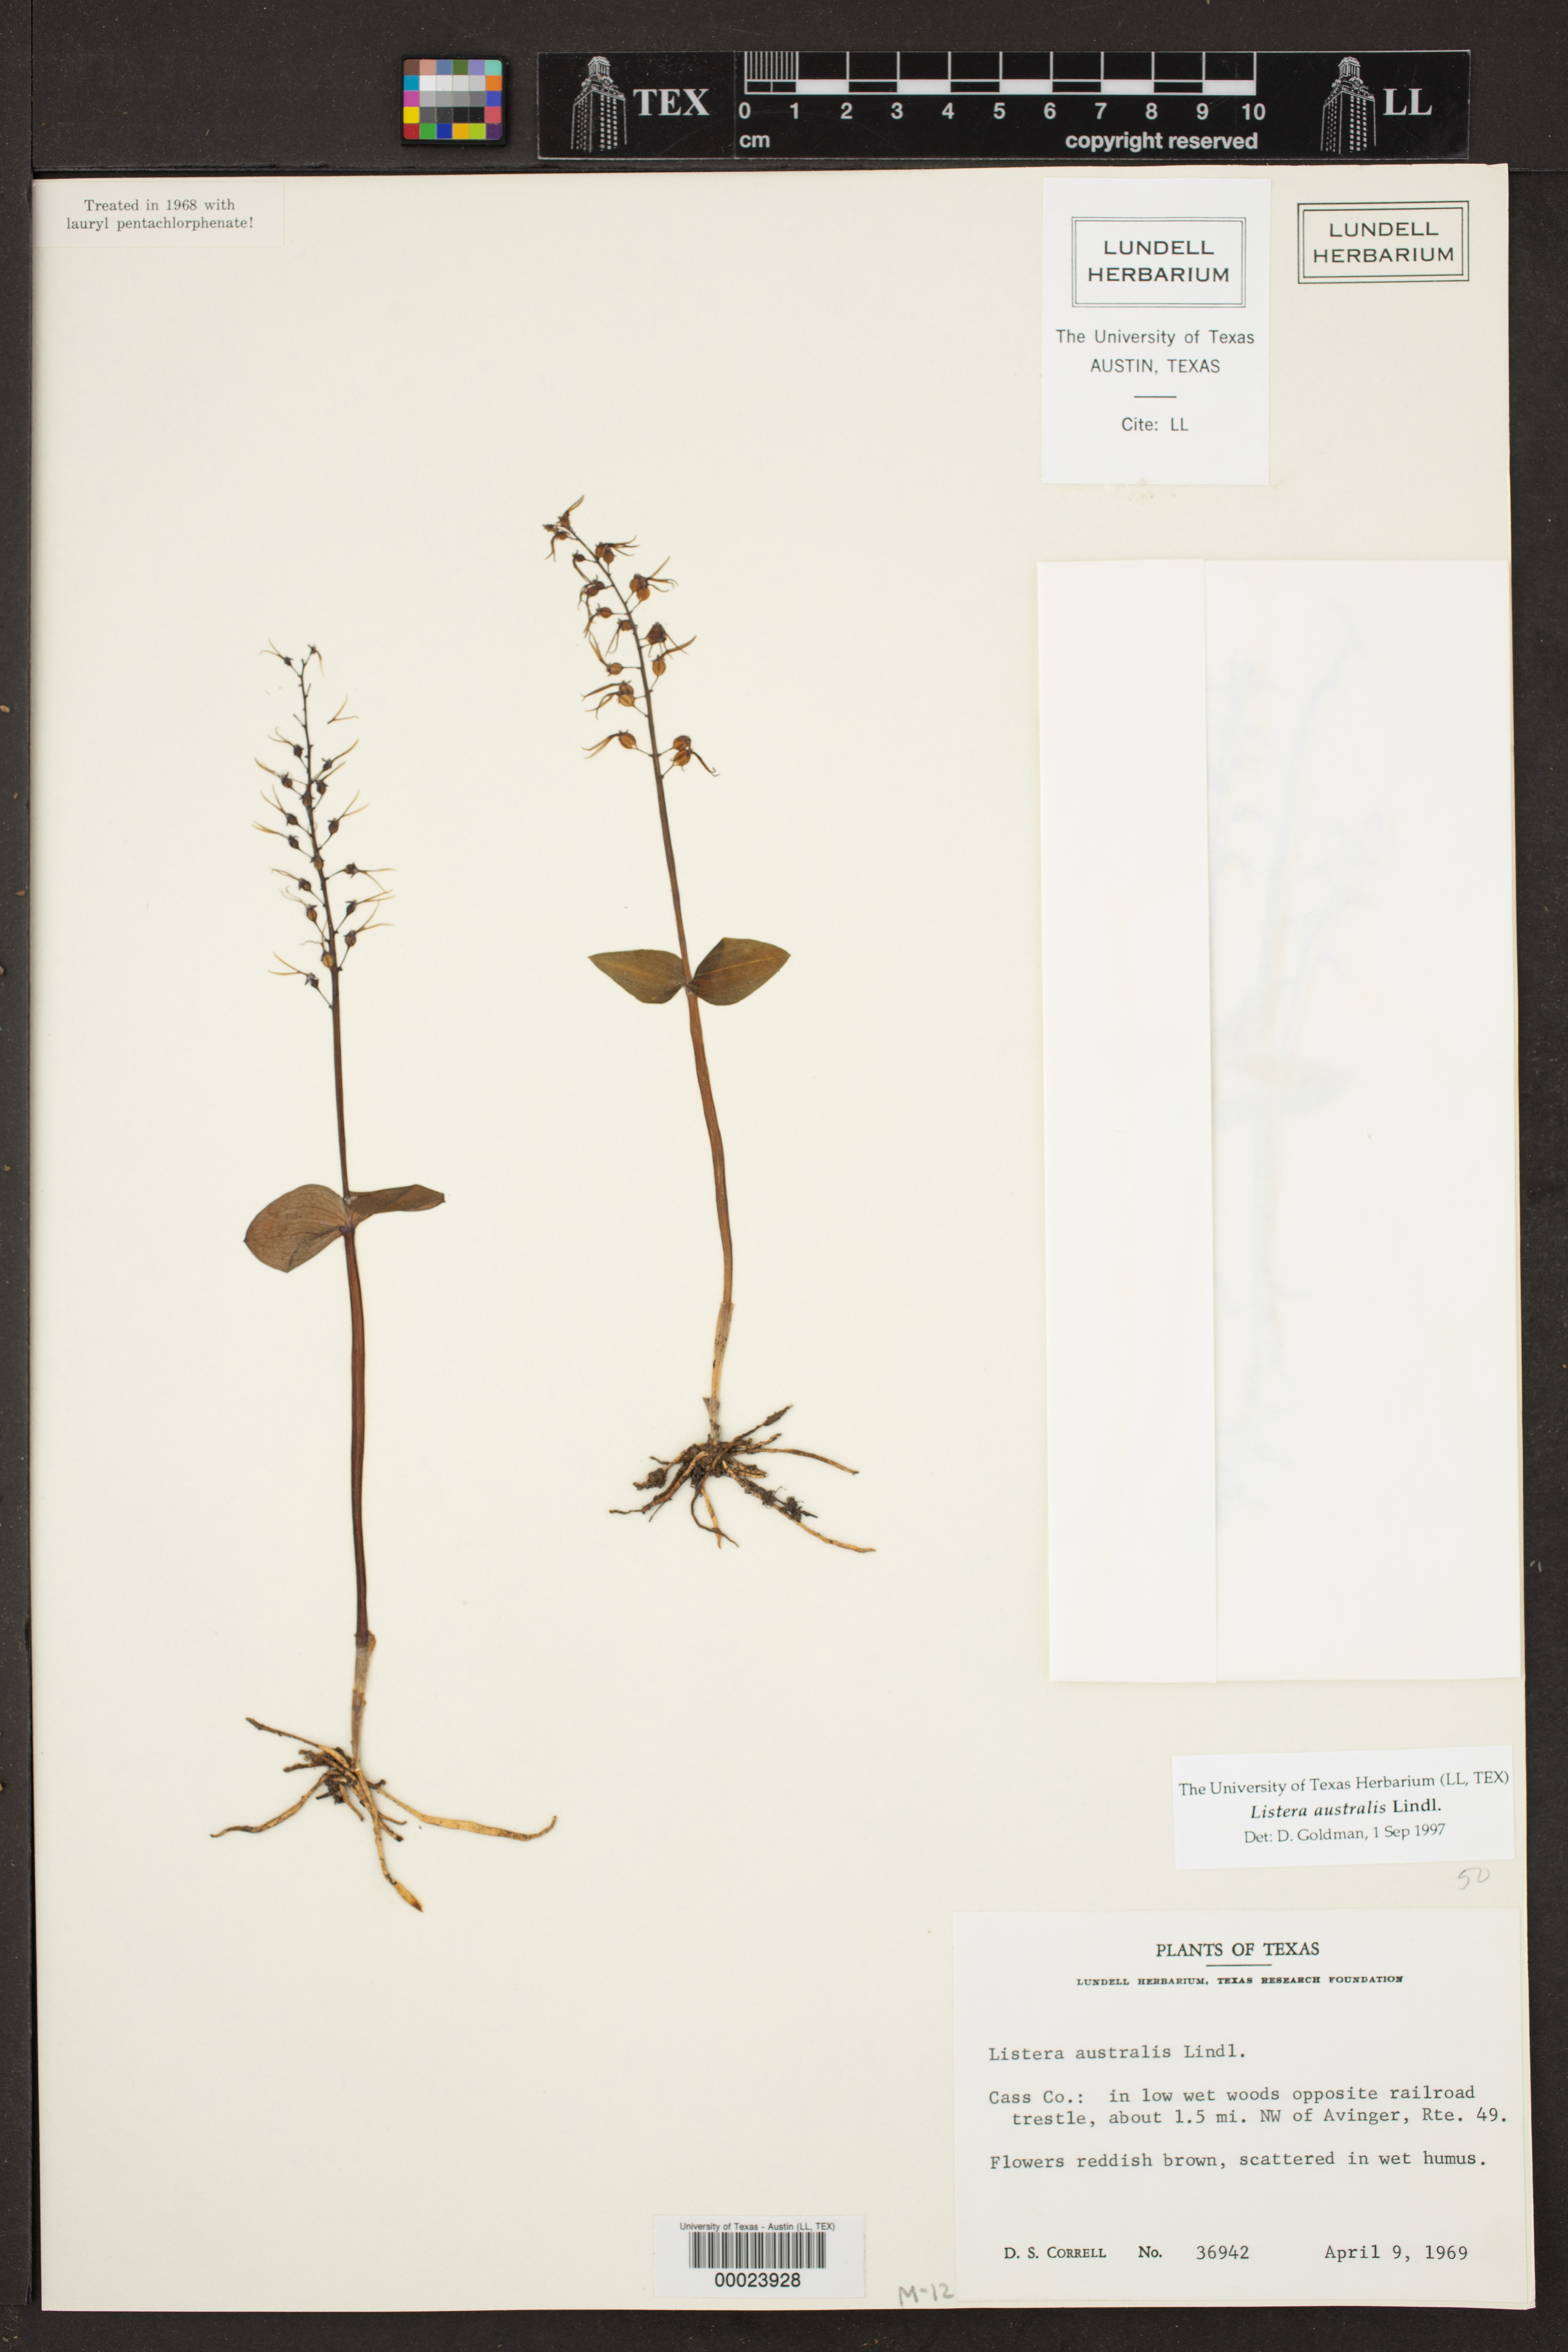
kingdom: Plantae
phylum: Tracheophyta
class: Liliopsida
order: Asparagales
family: Orchidaceae
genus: Neottia
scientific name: Neottia bifolia
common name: Southern twayblade
